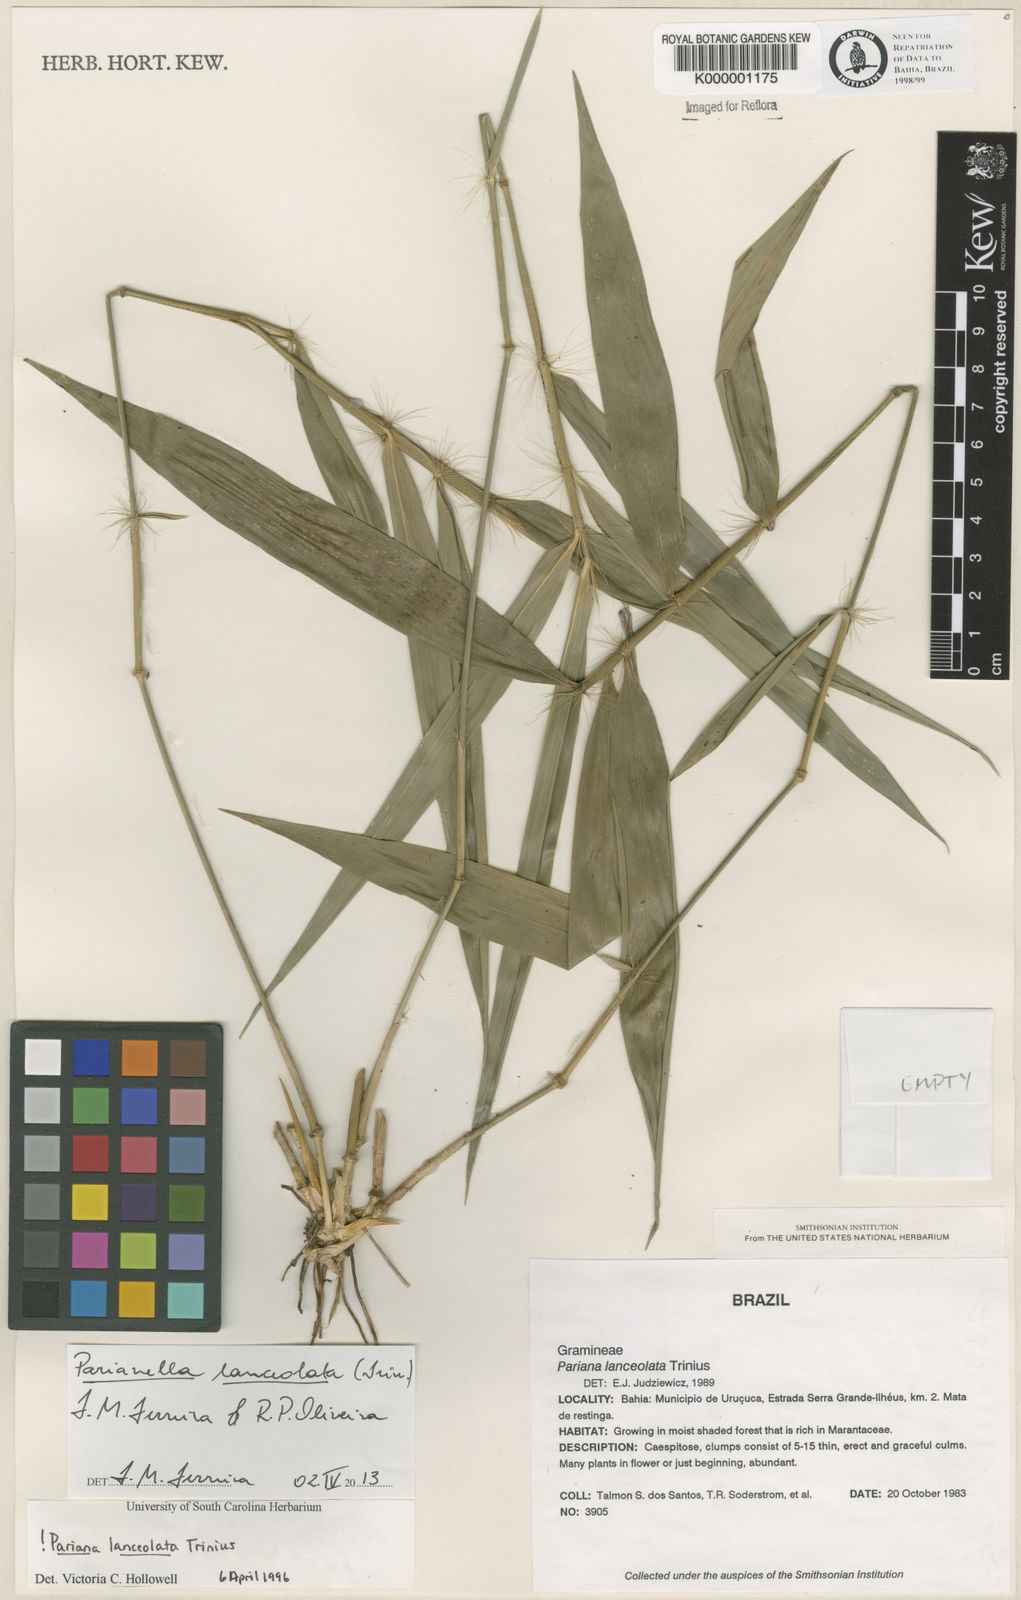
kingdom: Plantae
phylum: Tracheophyta
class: Liliopsida
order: Poales
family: Poaceae
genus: Parianella
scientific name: Parianella lanceolata
